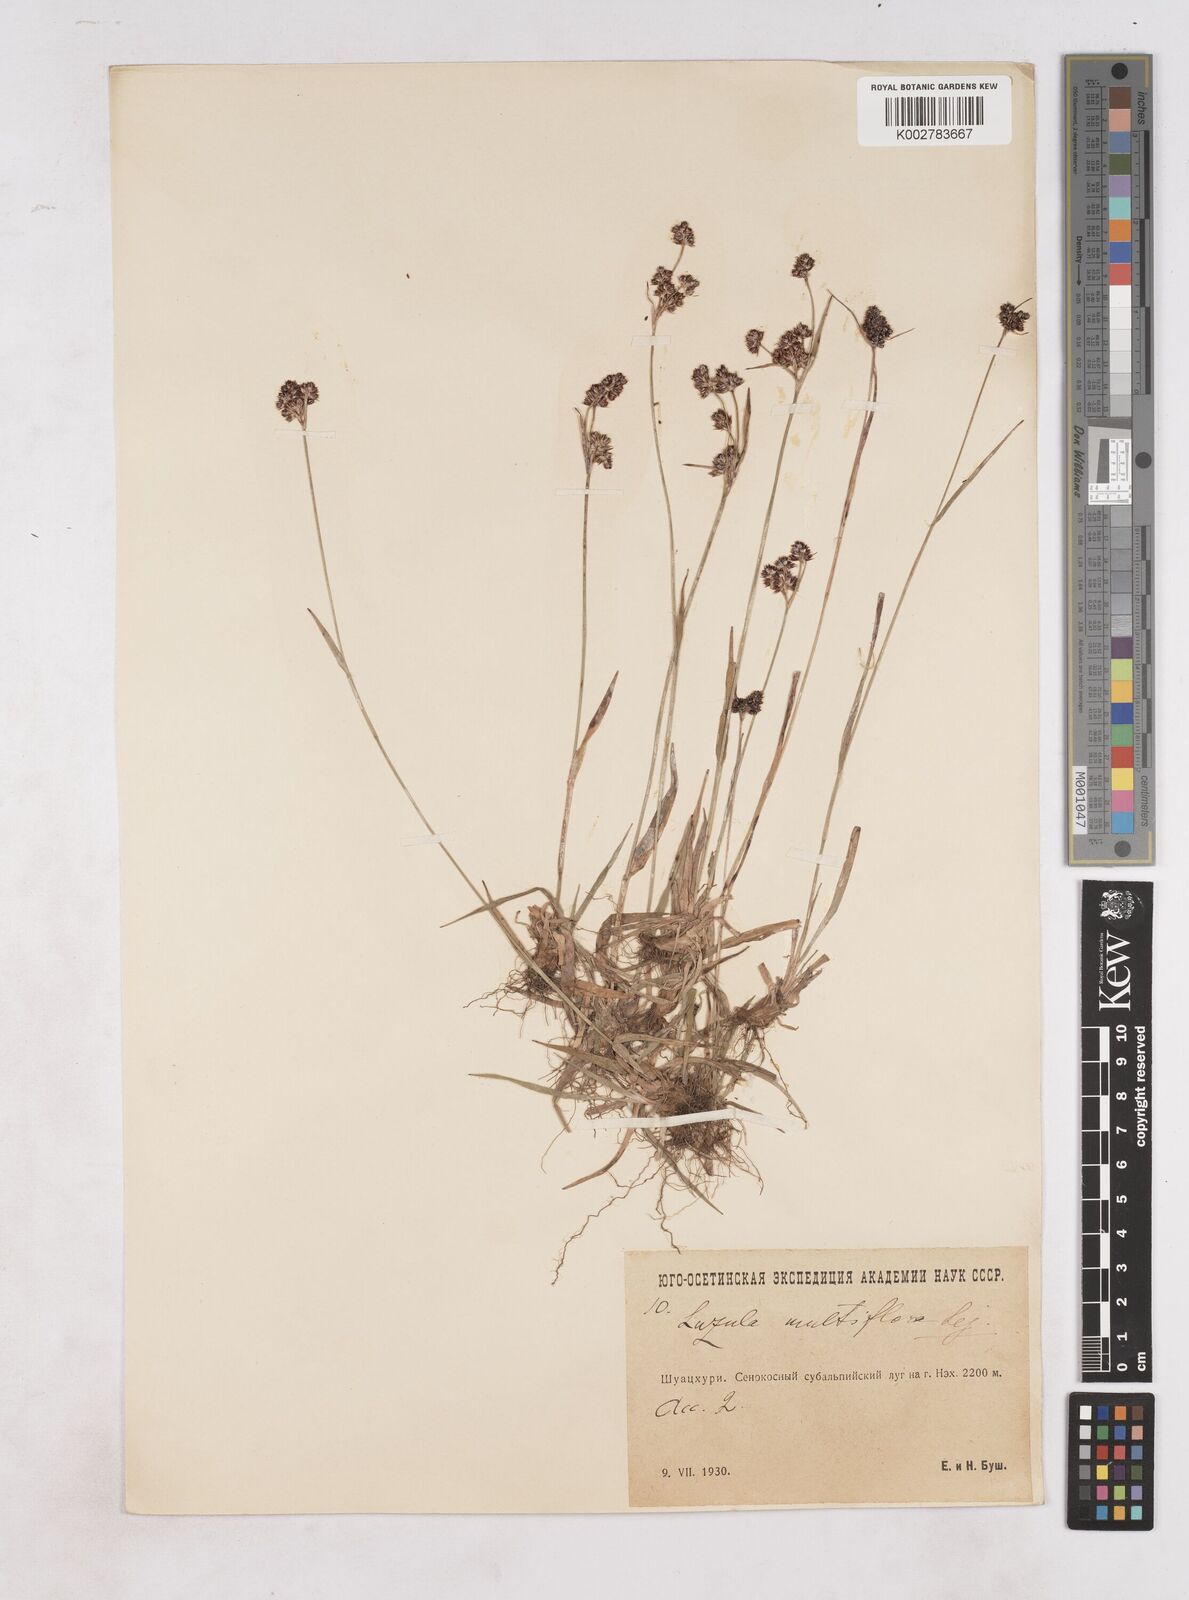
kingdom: Plantae
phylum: Tracheophyta
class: Liliopsida
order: Poales
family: Juncaceae
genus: Luzula
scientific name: Luzula campestris
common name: Field wood-rush
